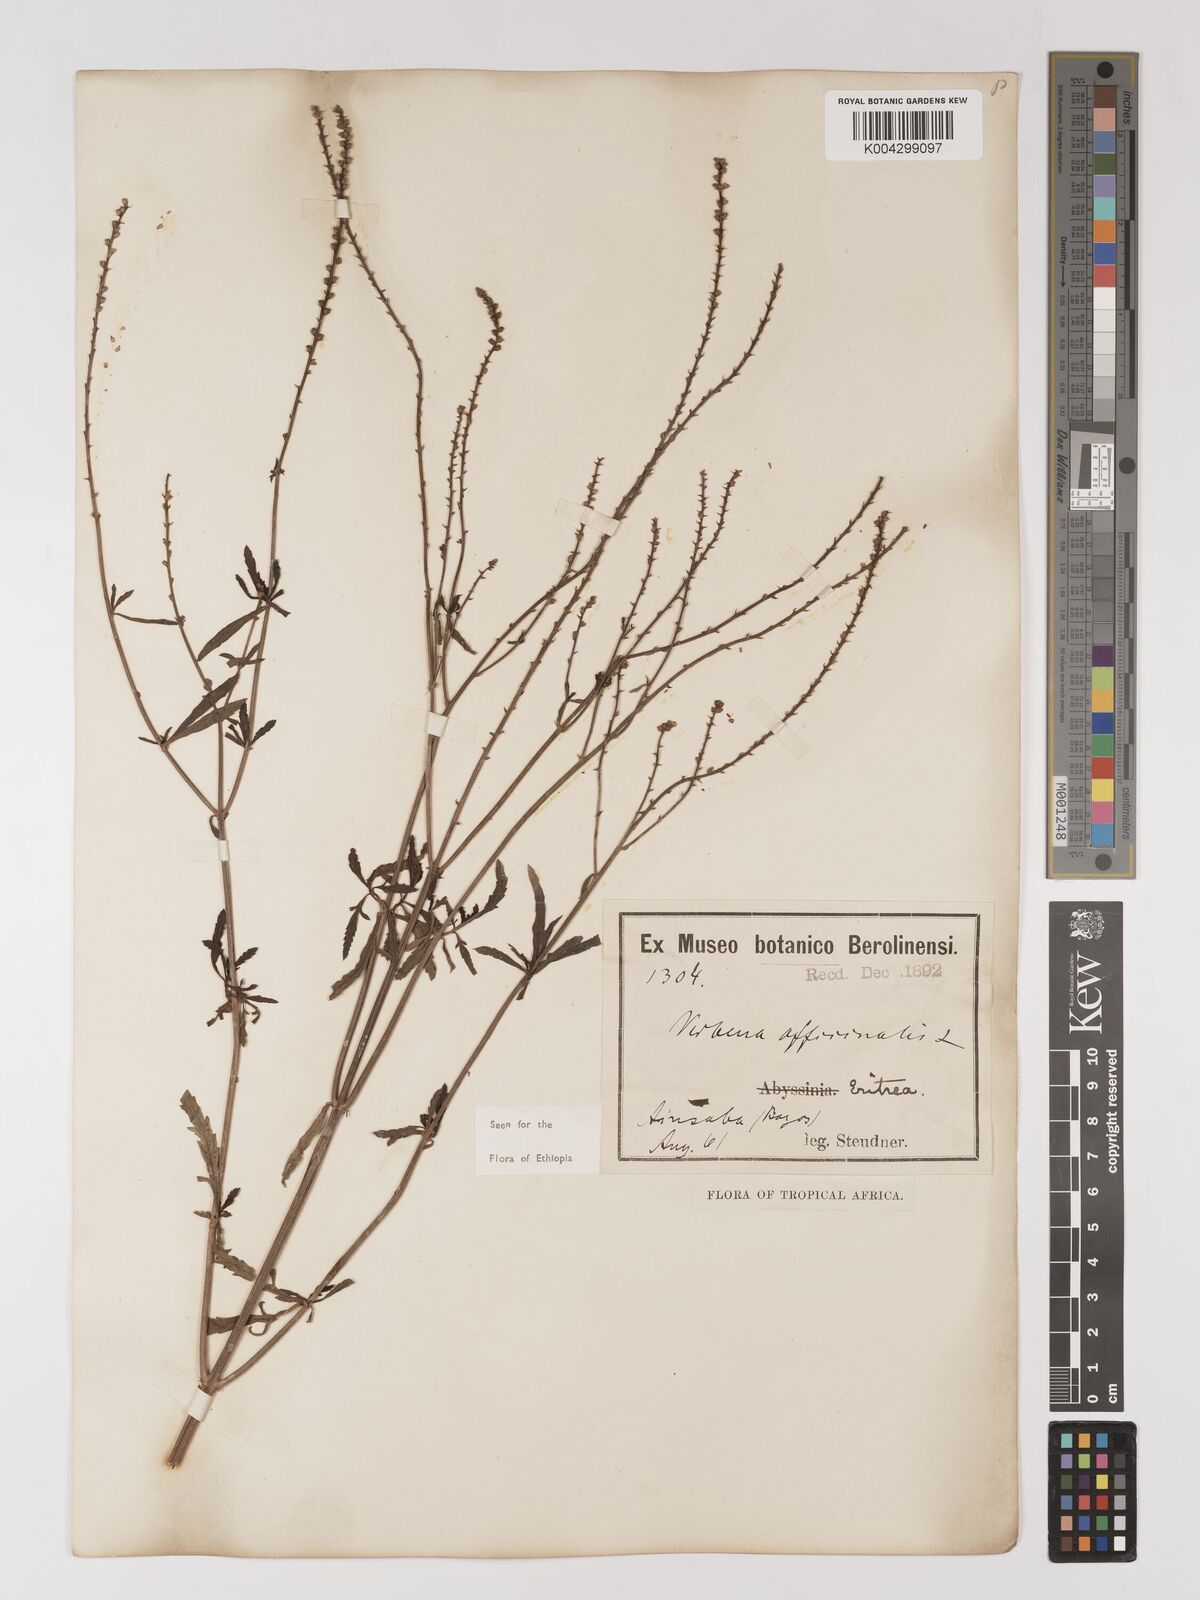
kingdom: Plantae
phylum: Tracheophyta
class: Magnoliopsida
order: Lamiales
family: Verbenaceae
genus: Verbena
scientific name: Verbena officinalis
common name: Vervain
